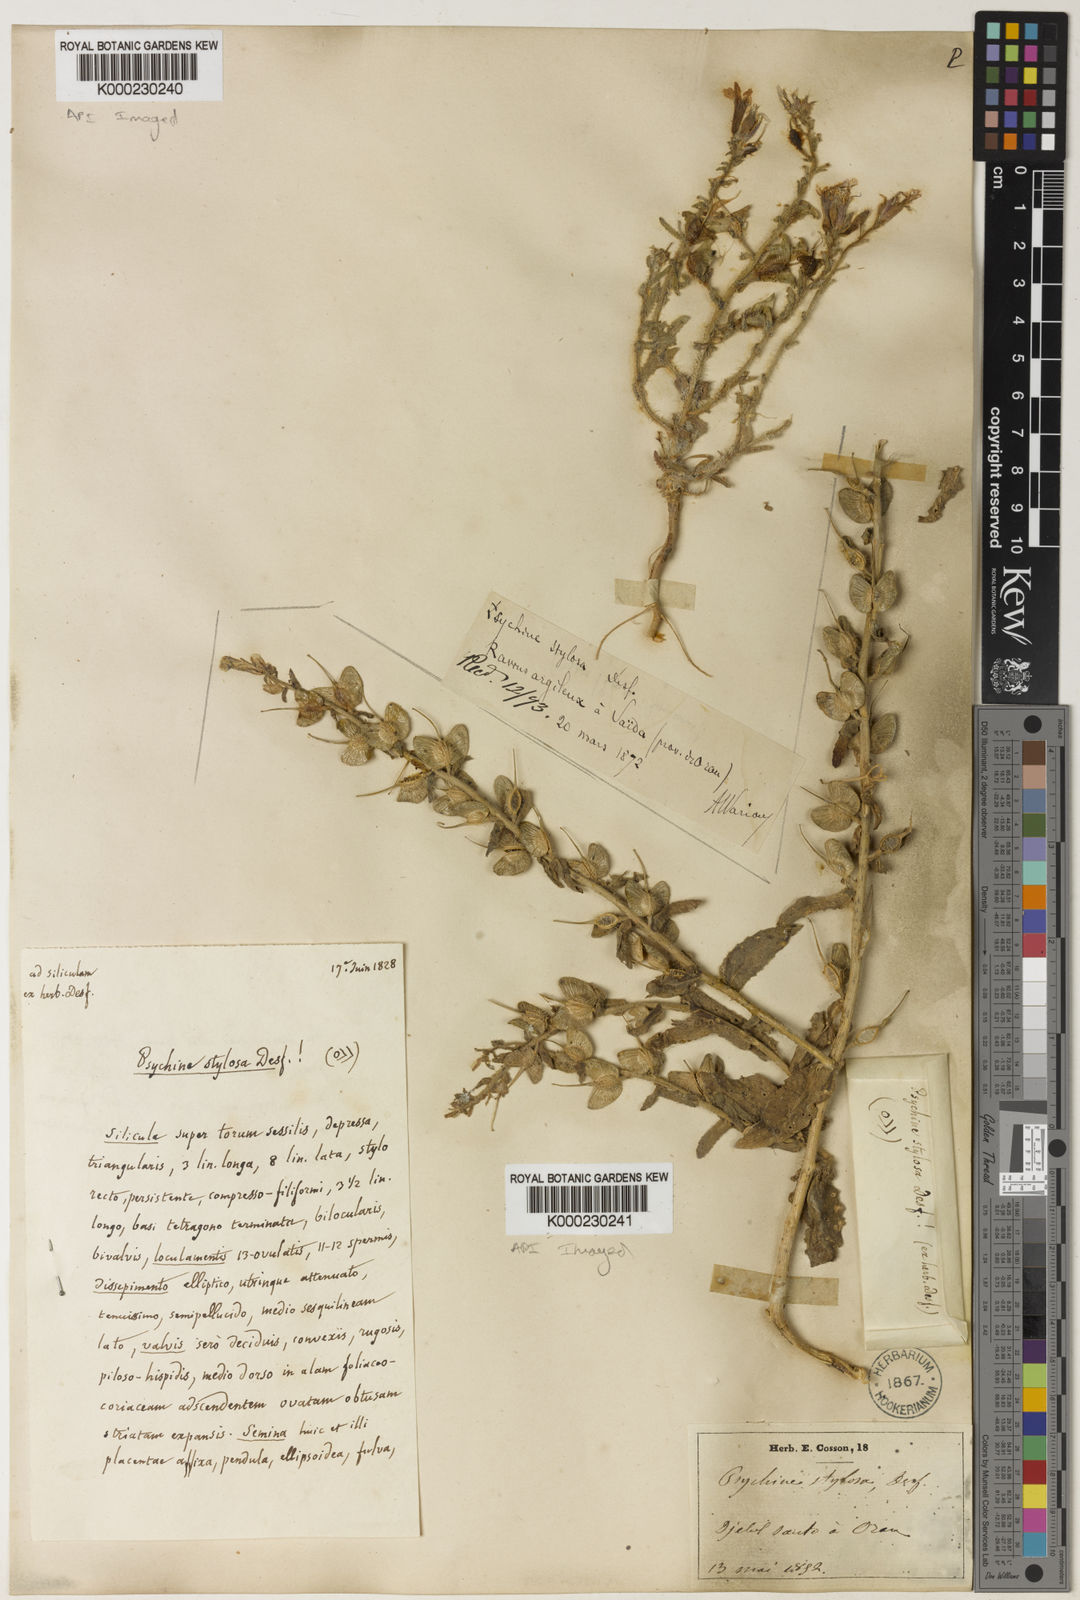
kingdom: Plantae
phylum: Tracheophyta
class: Magnoliopsida
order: Brassicales
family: Brassicaceae
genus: Psychine
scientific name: Psychine stylosa
